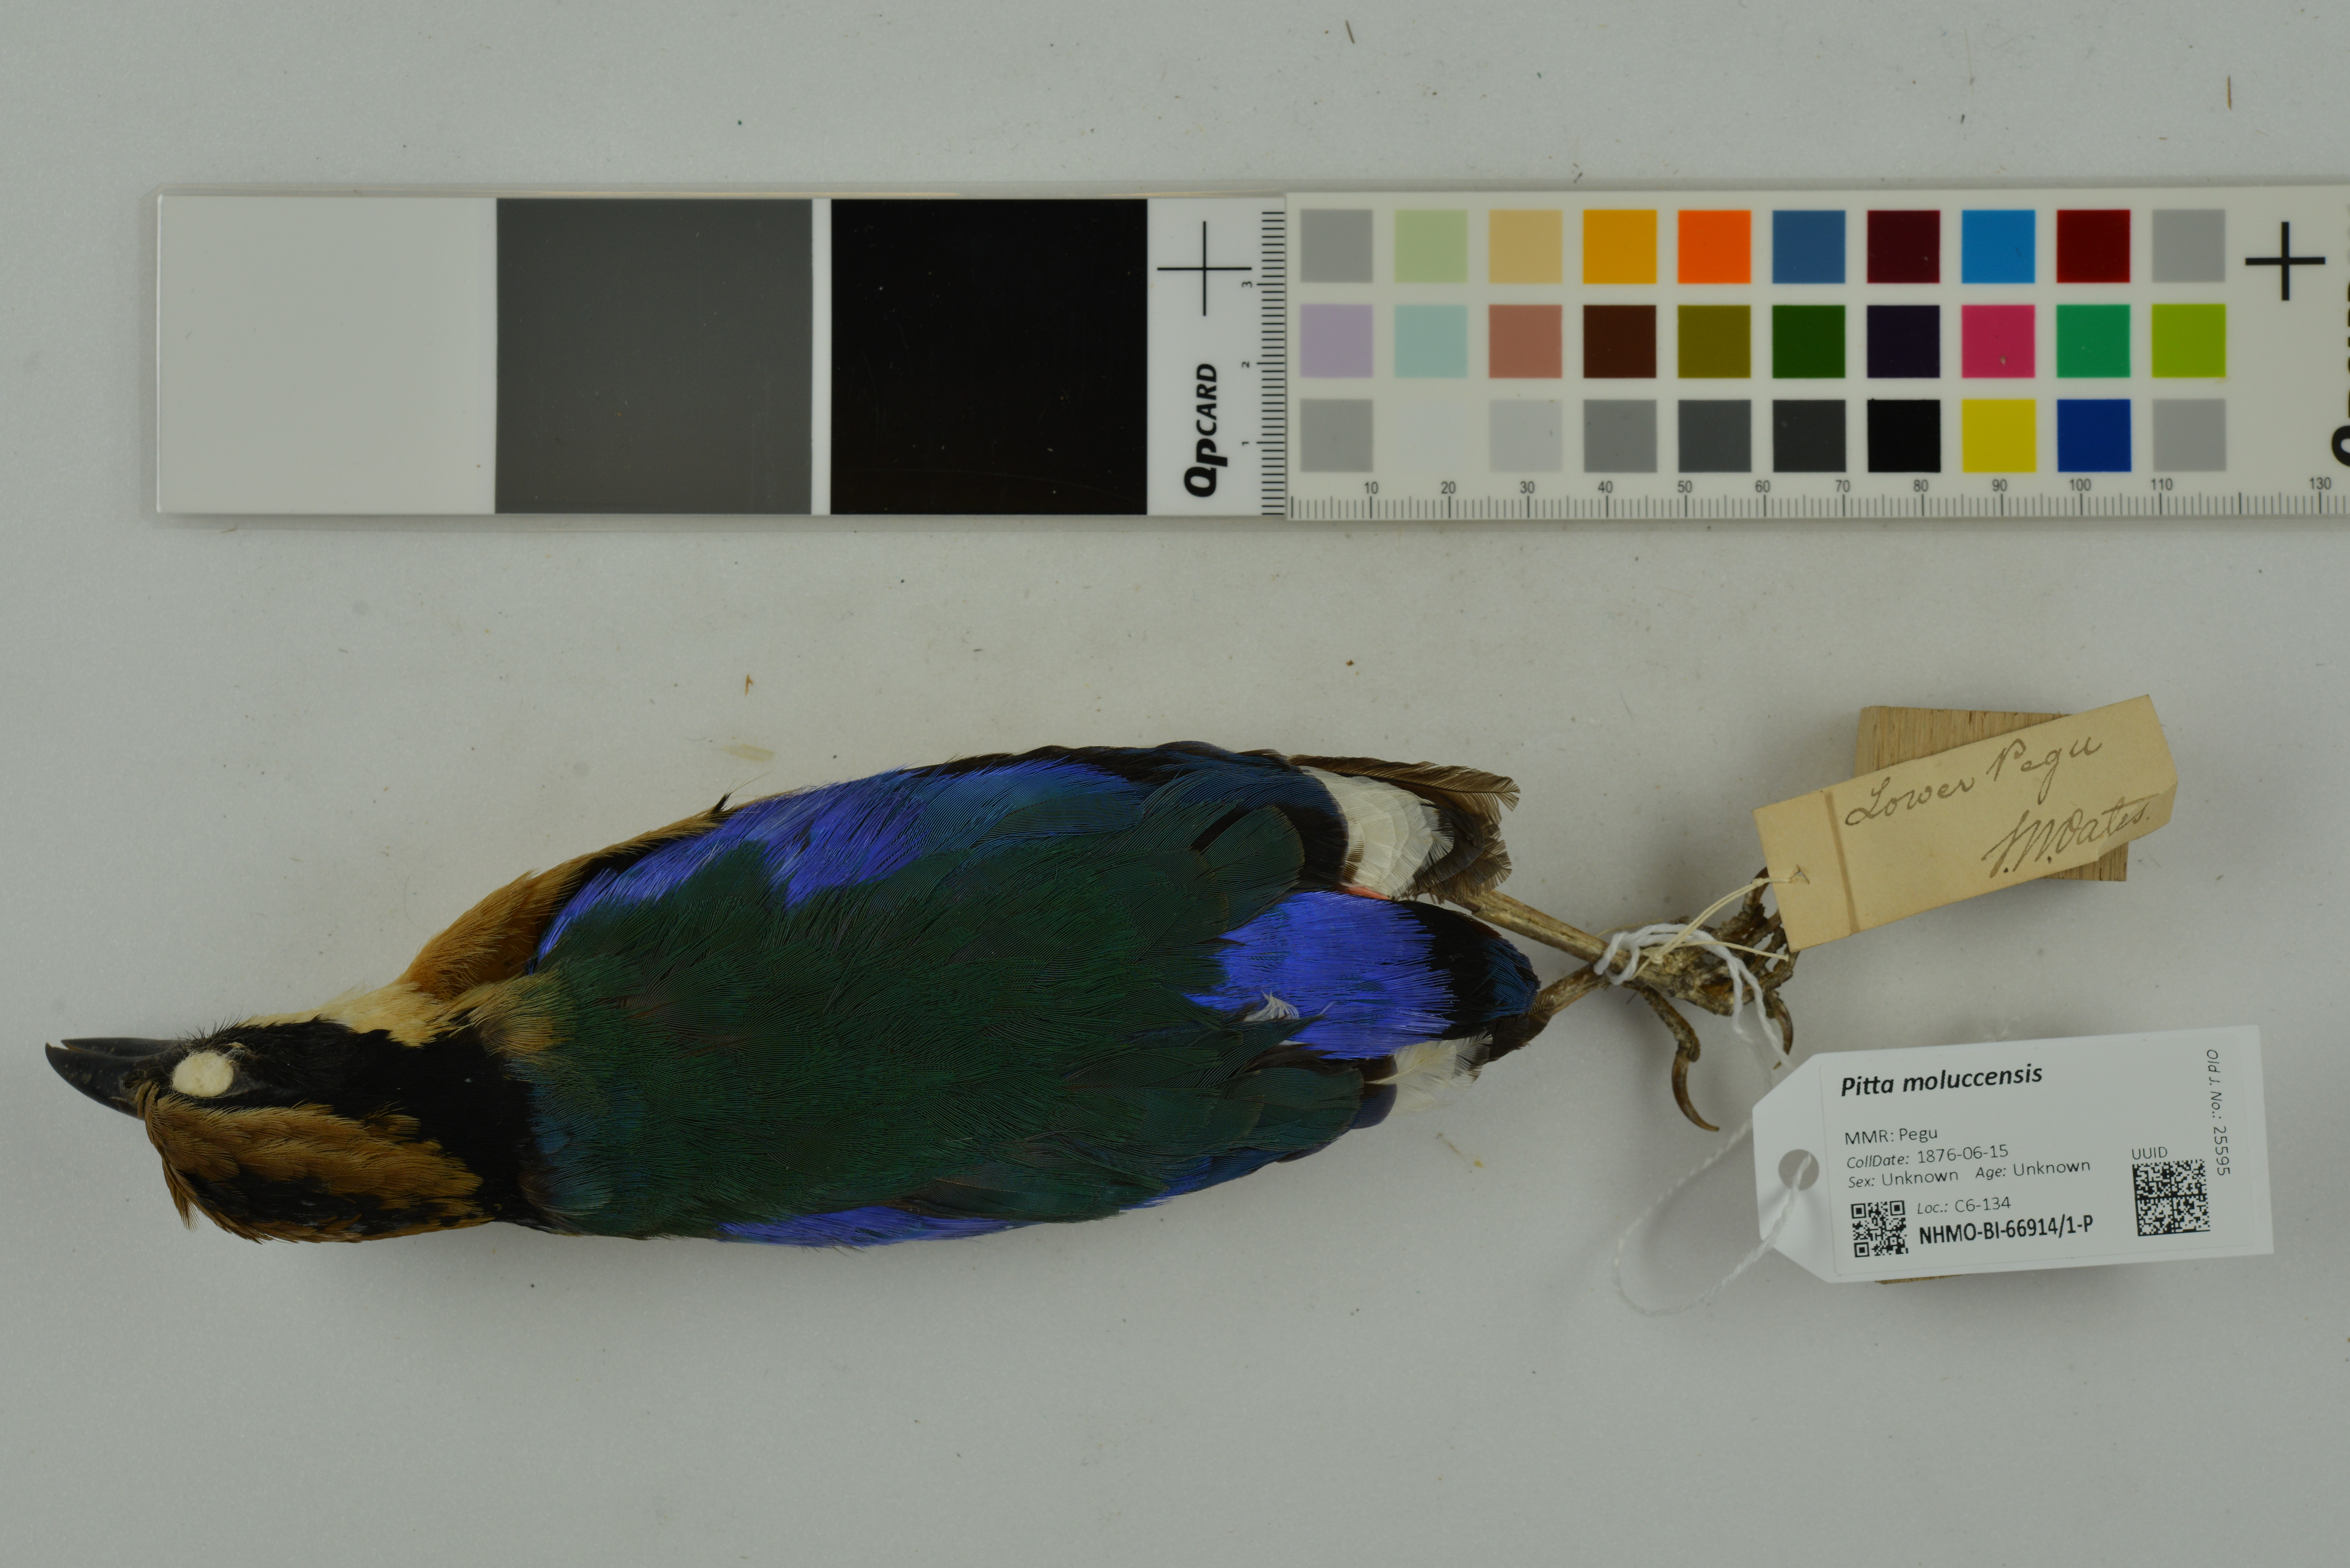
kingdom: Animalia
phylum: Chordata
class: Aves
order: Passeriformes
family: Pittidae
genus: Pitta
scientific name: Pitta moluccensis
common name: Blue-winged pitta
